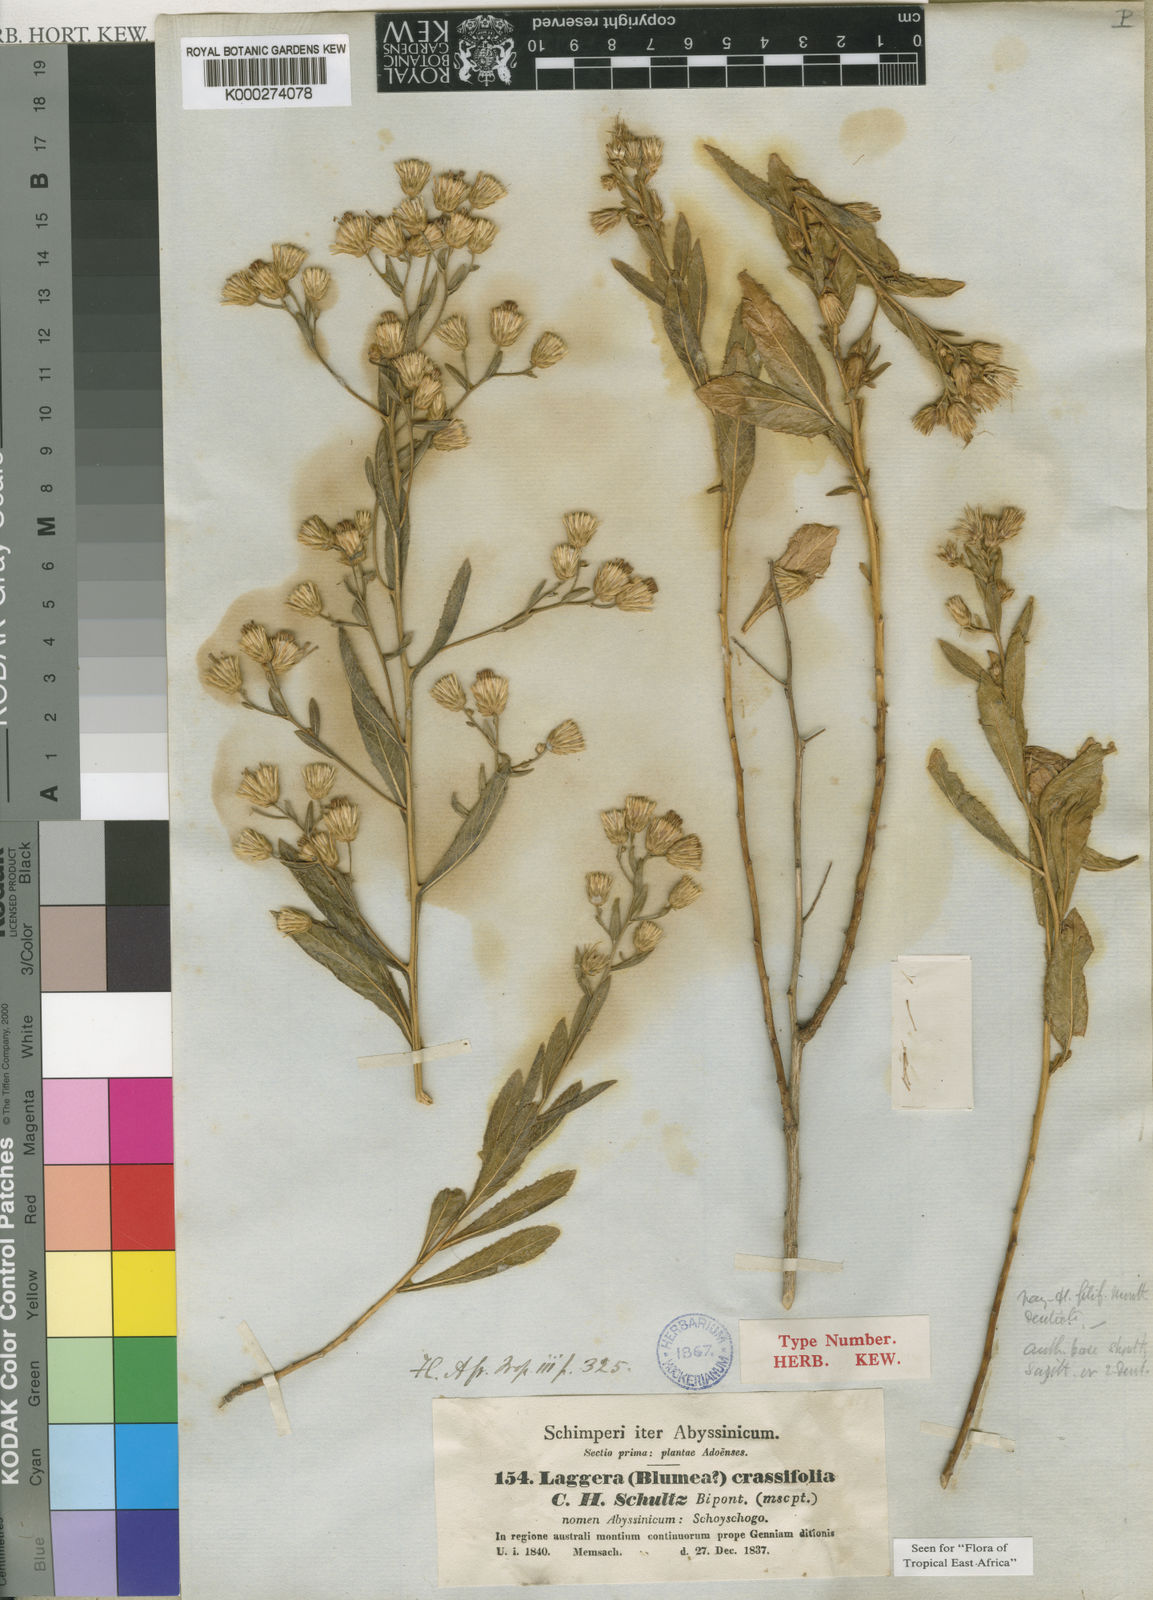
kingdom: Plantae
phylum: Tracheophyta
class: Magnoliopsida
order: Asterales
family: Asteraceae
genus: Laggera
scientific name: Laggera
